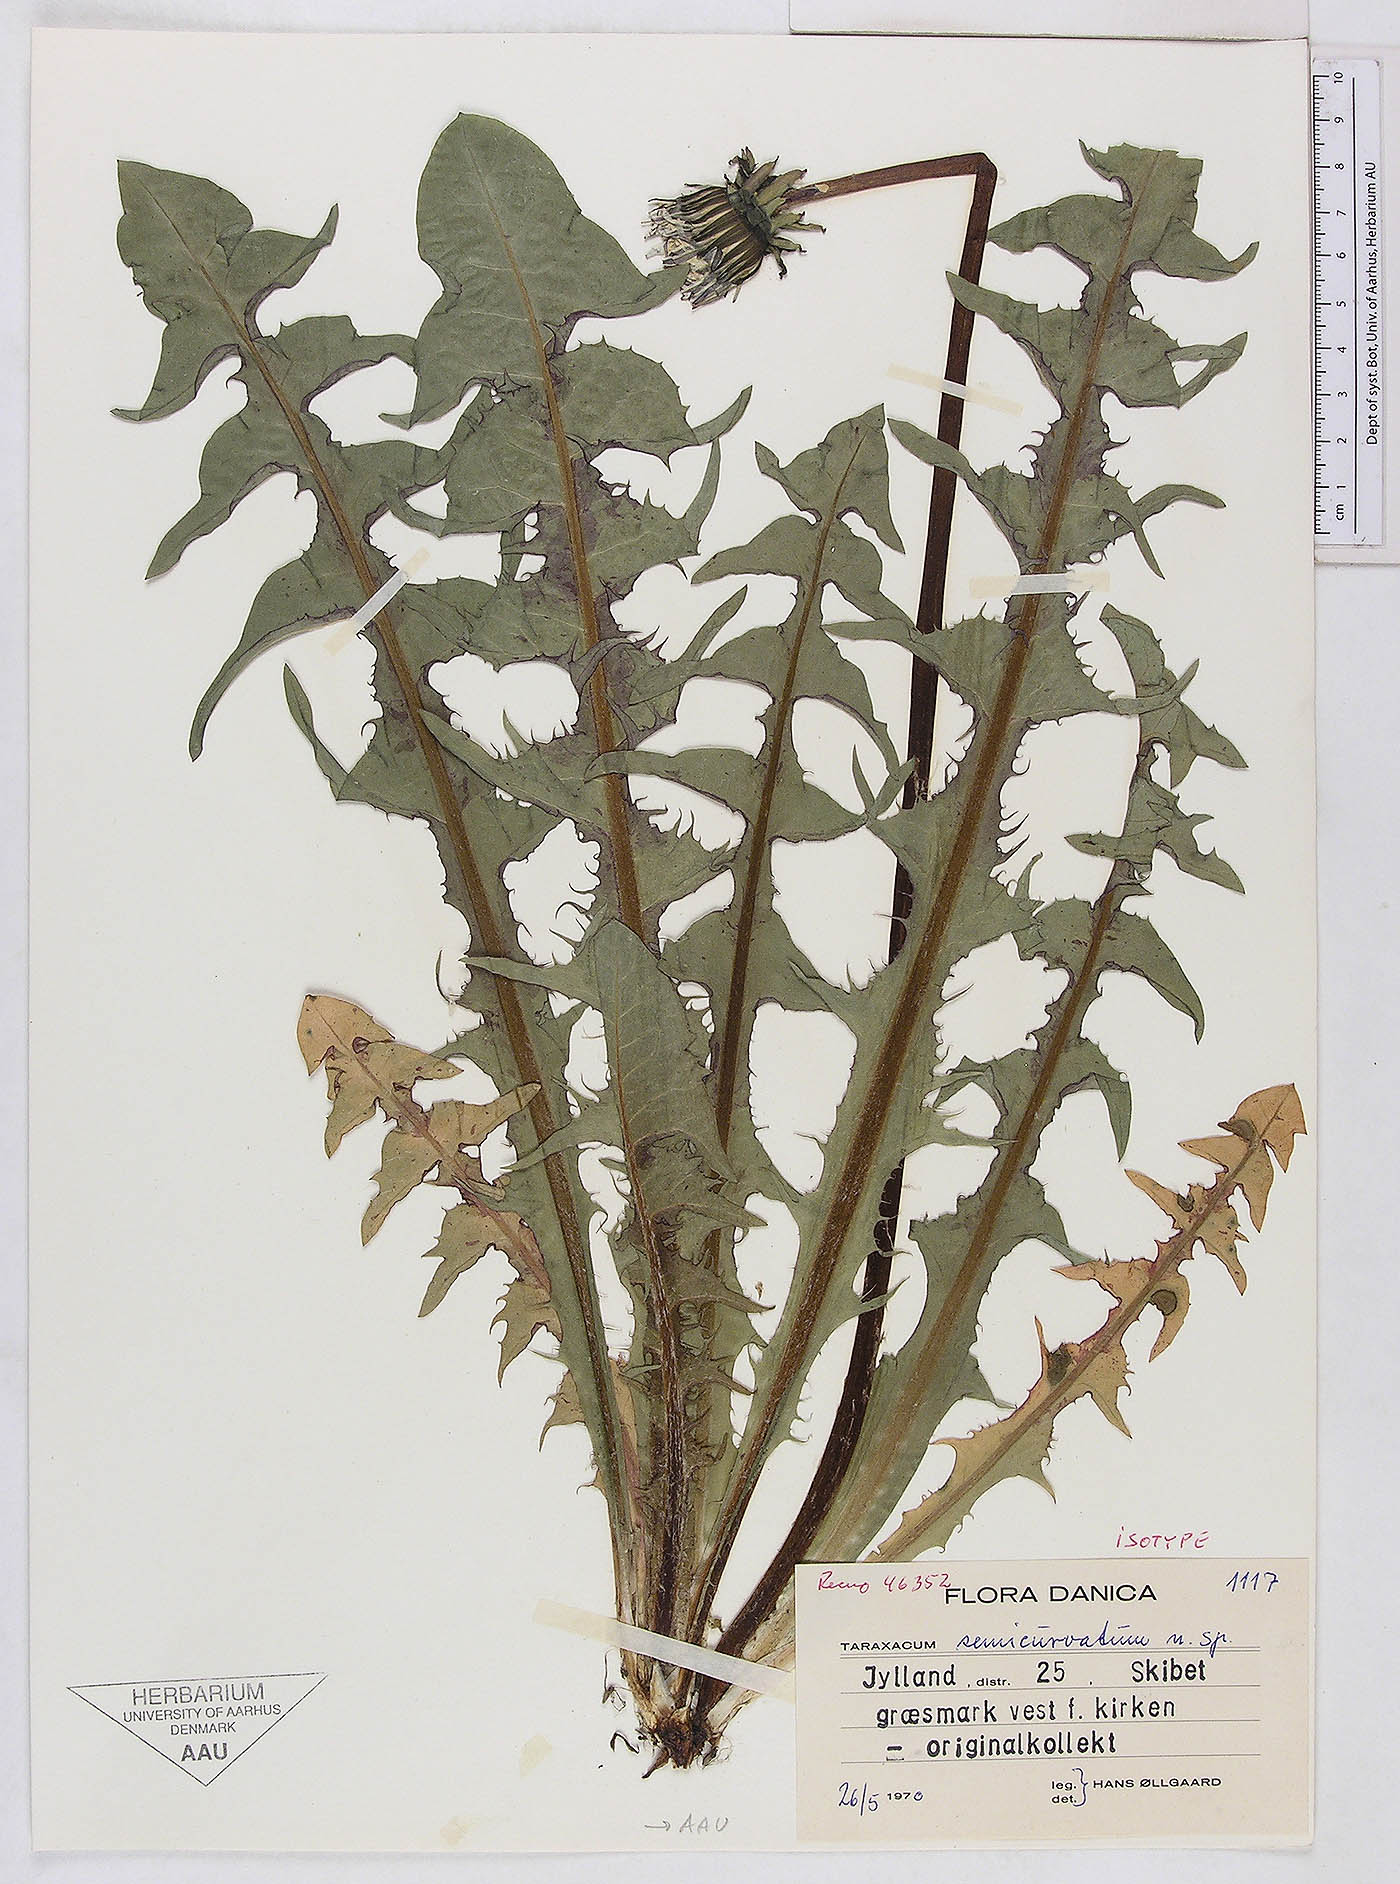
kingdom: Plantae
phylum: Tracheophyta
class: Magnoliopsida
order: Asterales
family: Asteraceae
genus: Taraxacum
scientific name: Taraxacum semicurvatum
